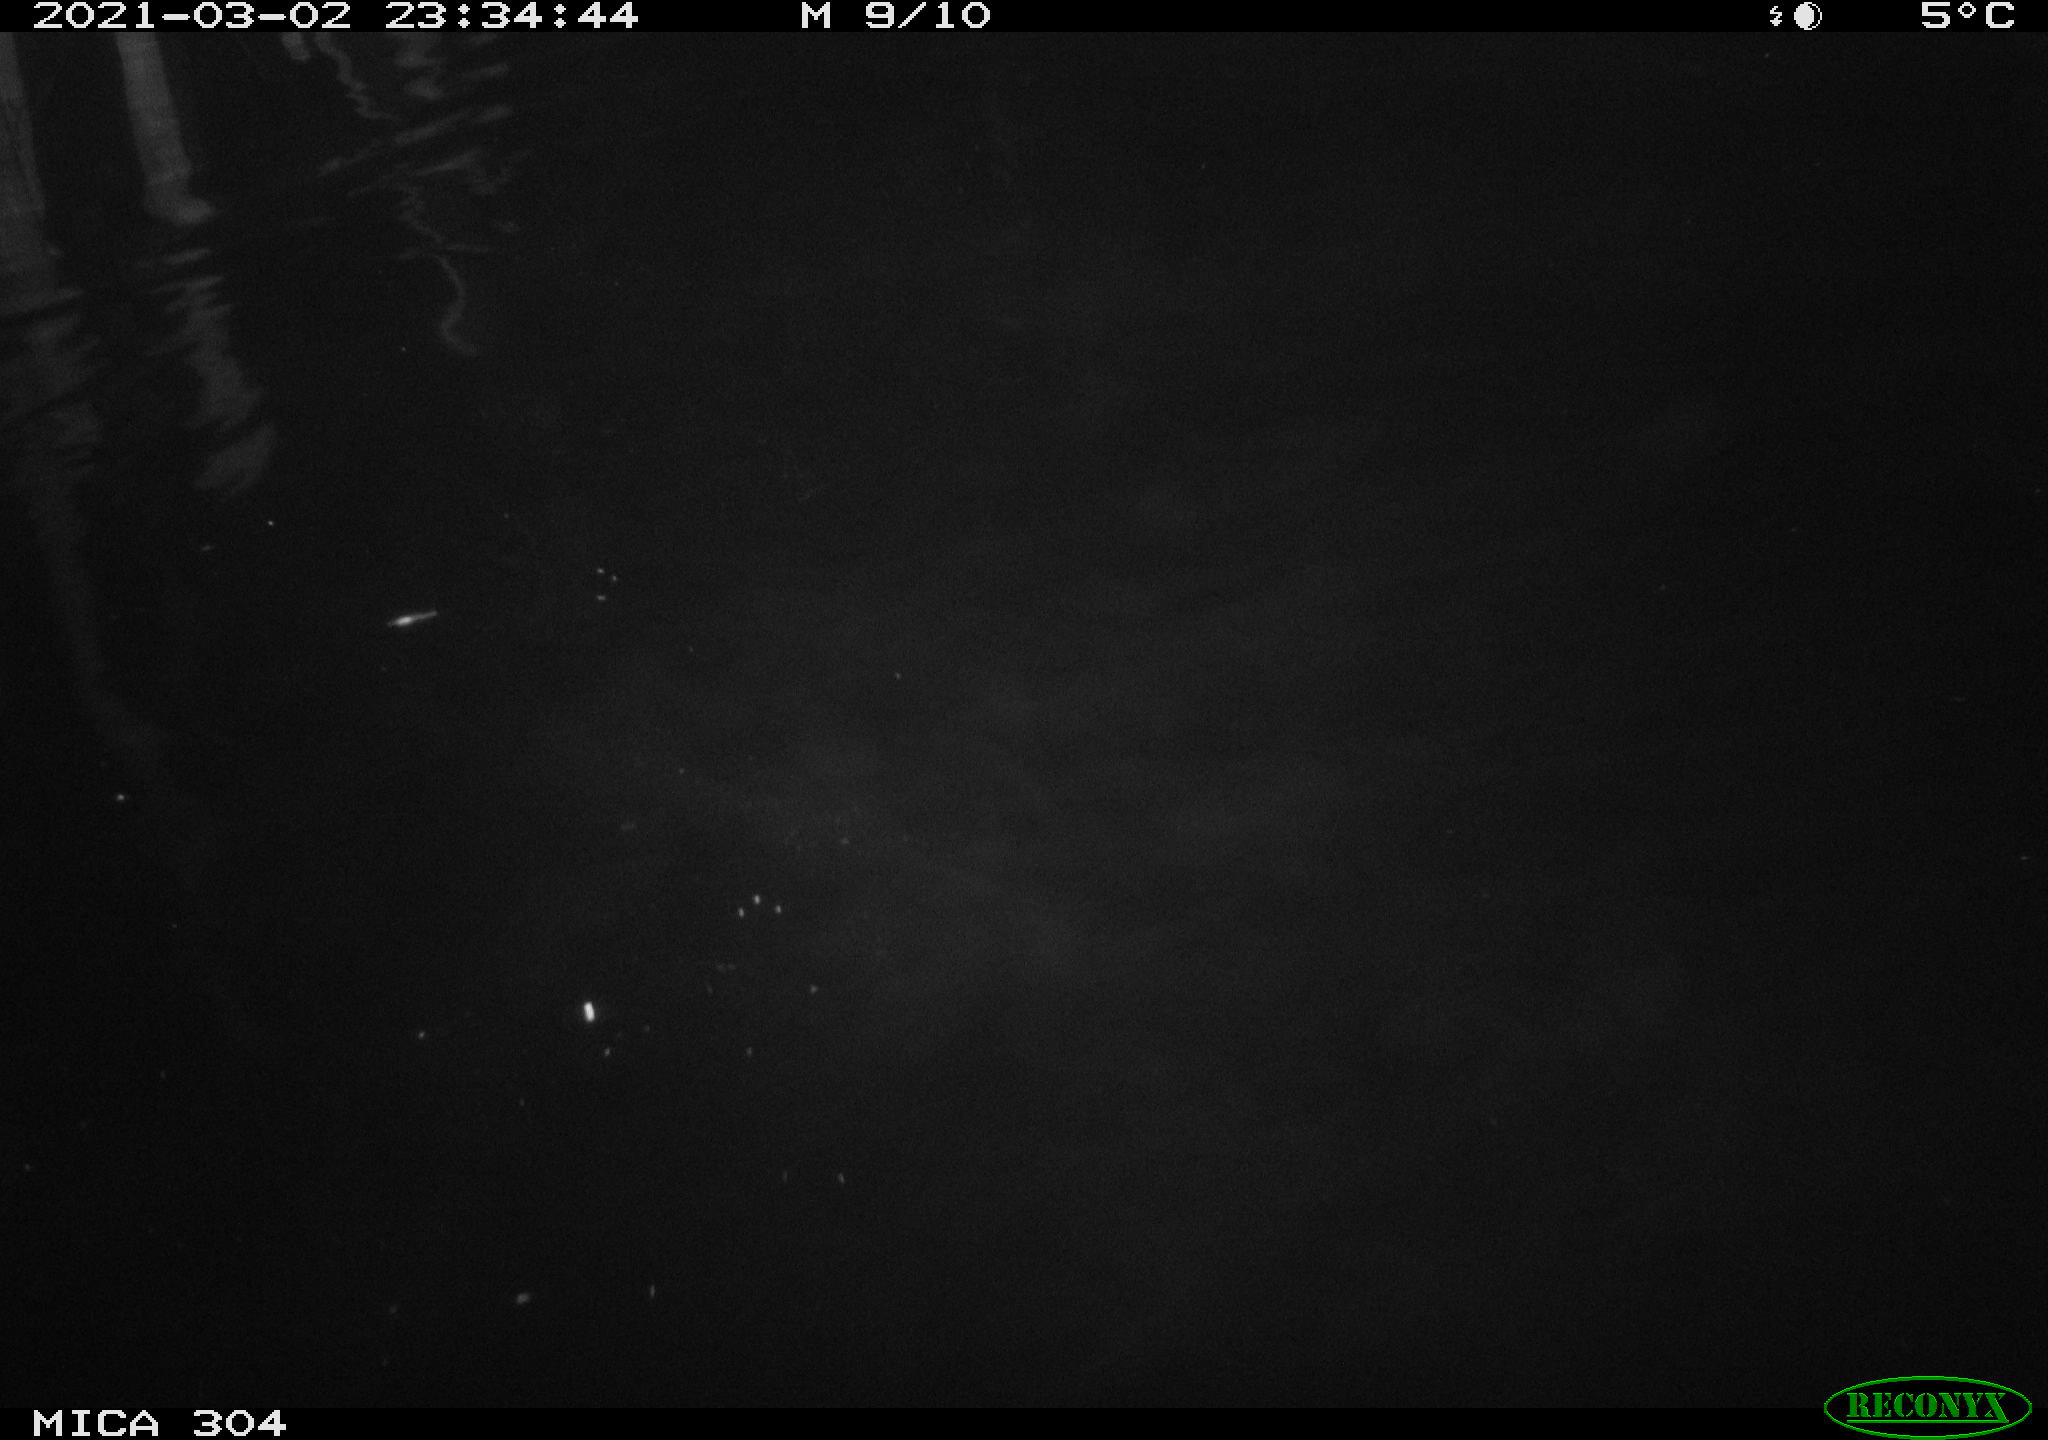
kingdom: Animalia
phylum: Chordata
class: Aves
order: Anseriformes
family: Anatidae
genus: Anas
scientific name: Anas platyrhynchos
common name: Mallard
